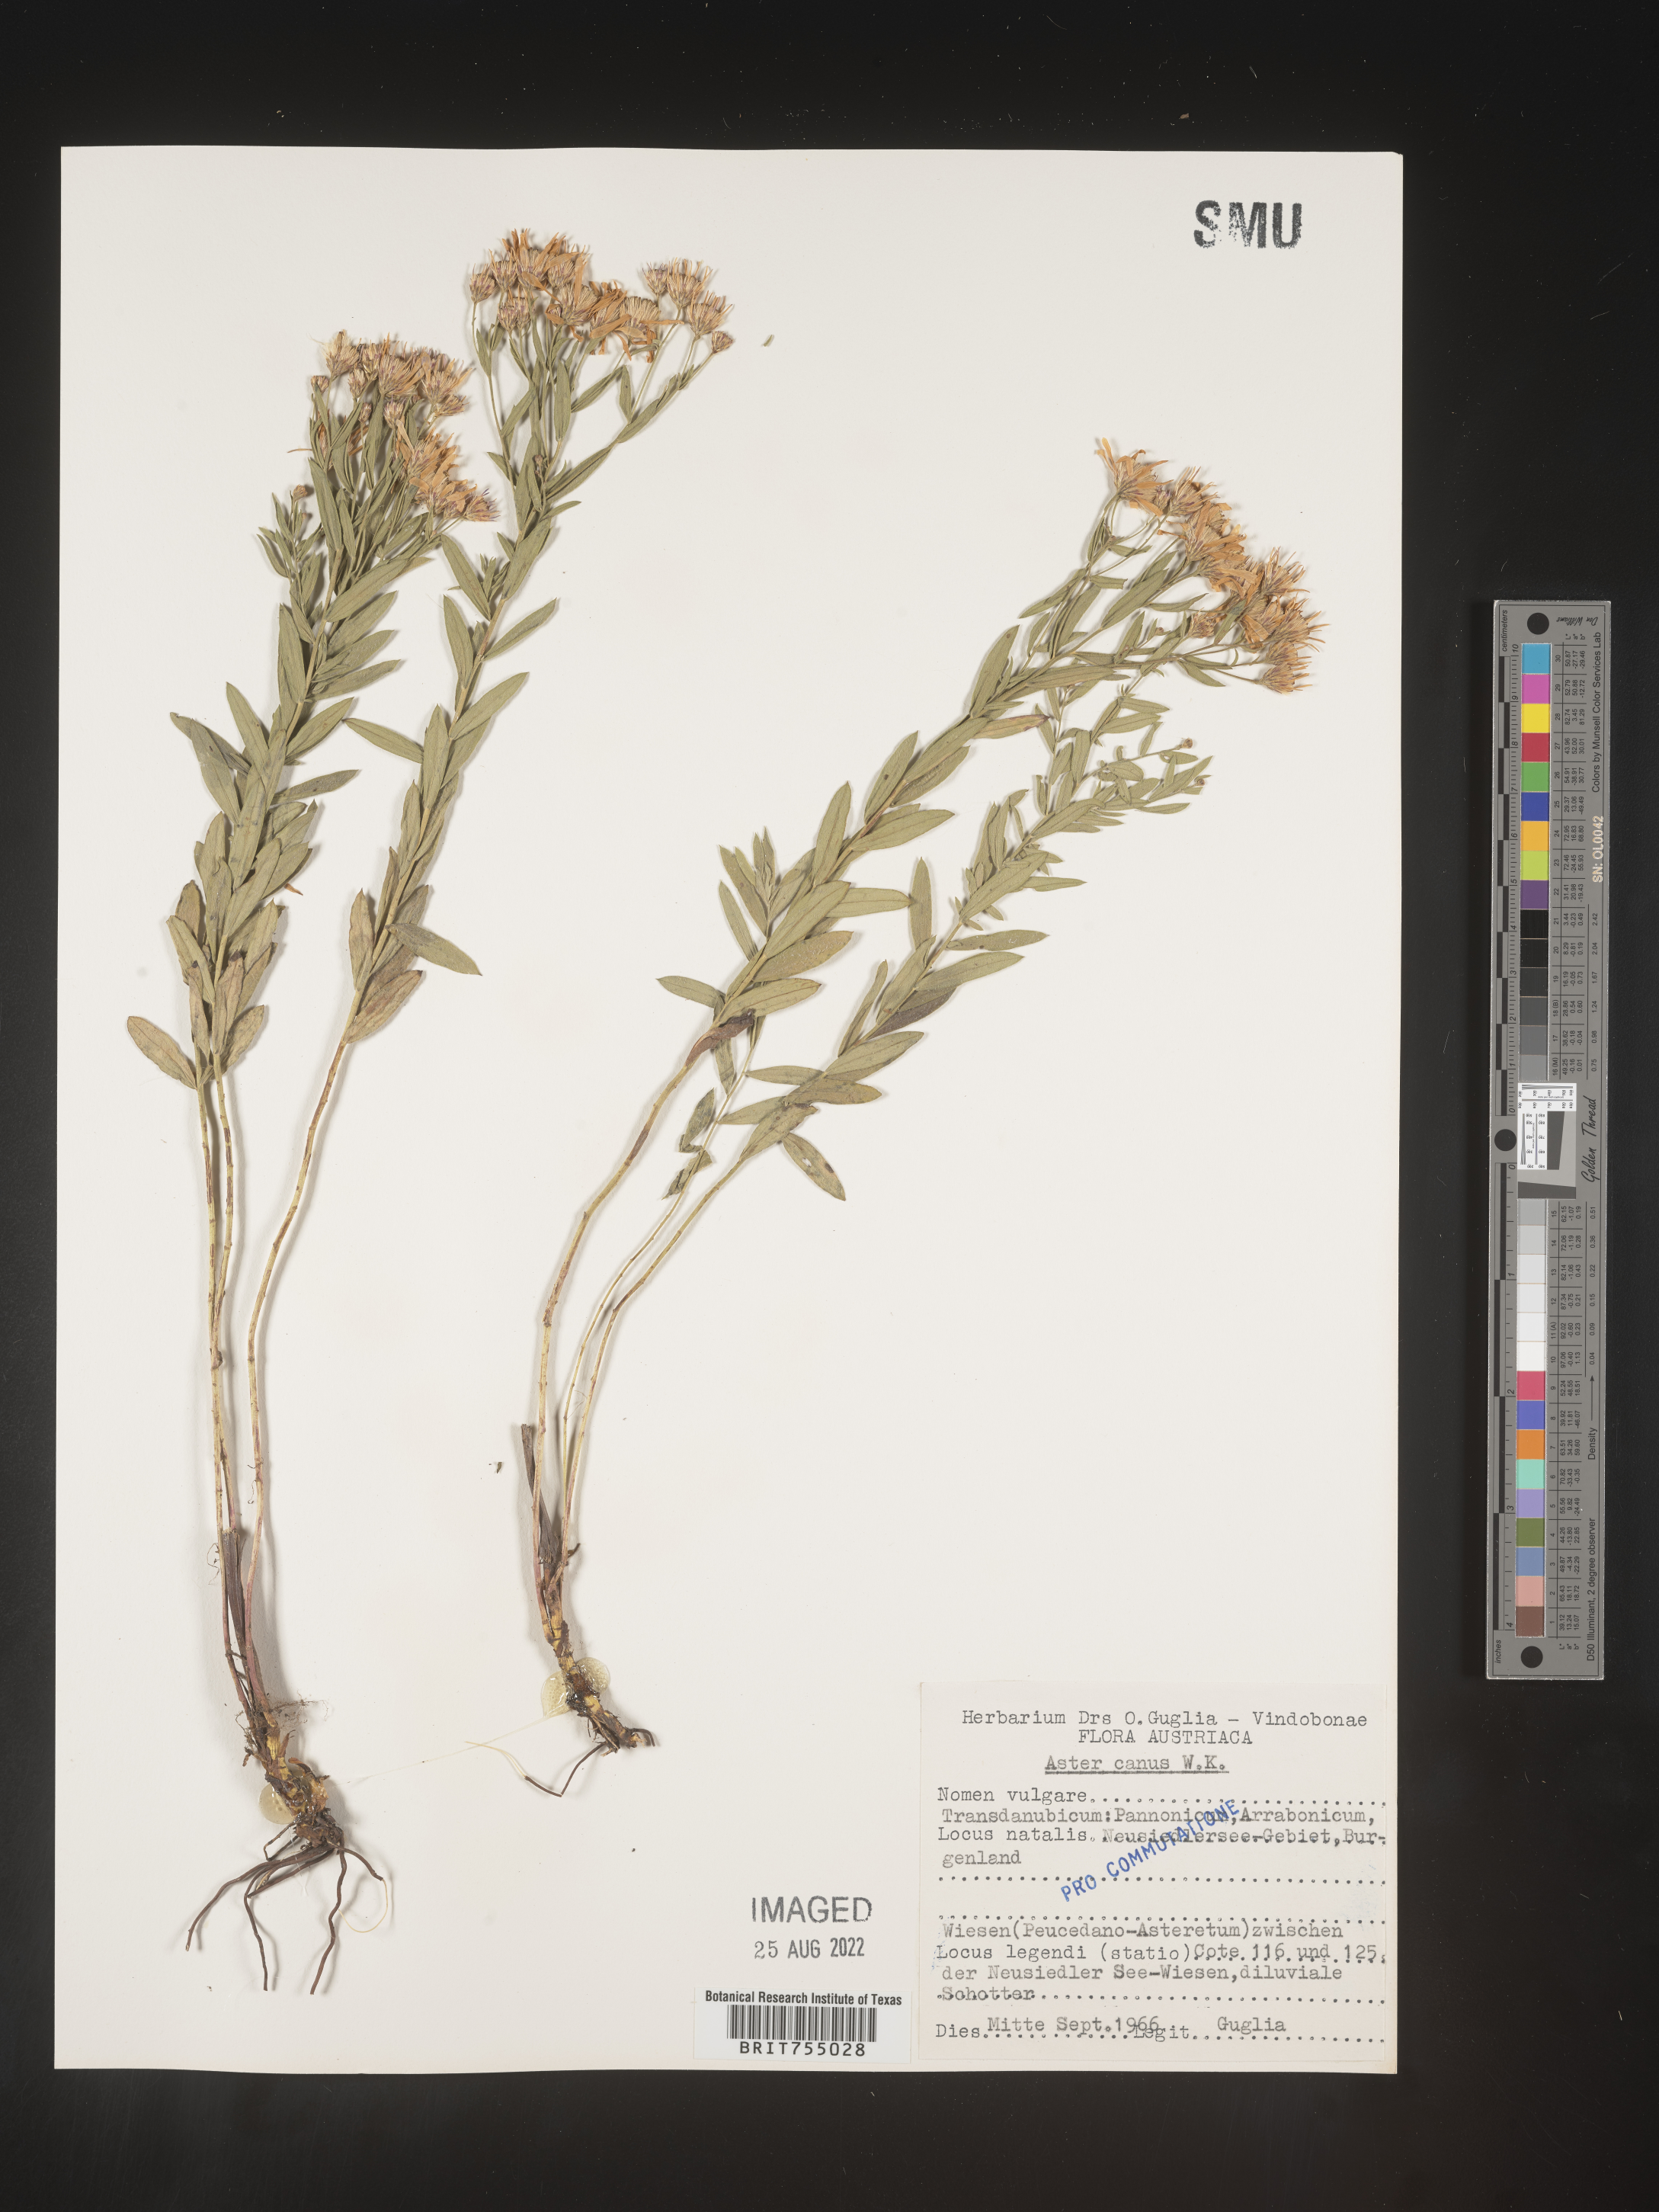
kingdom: Plantae
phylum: Tracheophyta
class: Magnoliopsida
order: Asterales
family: Asteraceae
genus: Symphyotrichum
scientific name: Symphyotrichum
